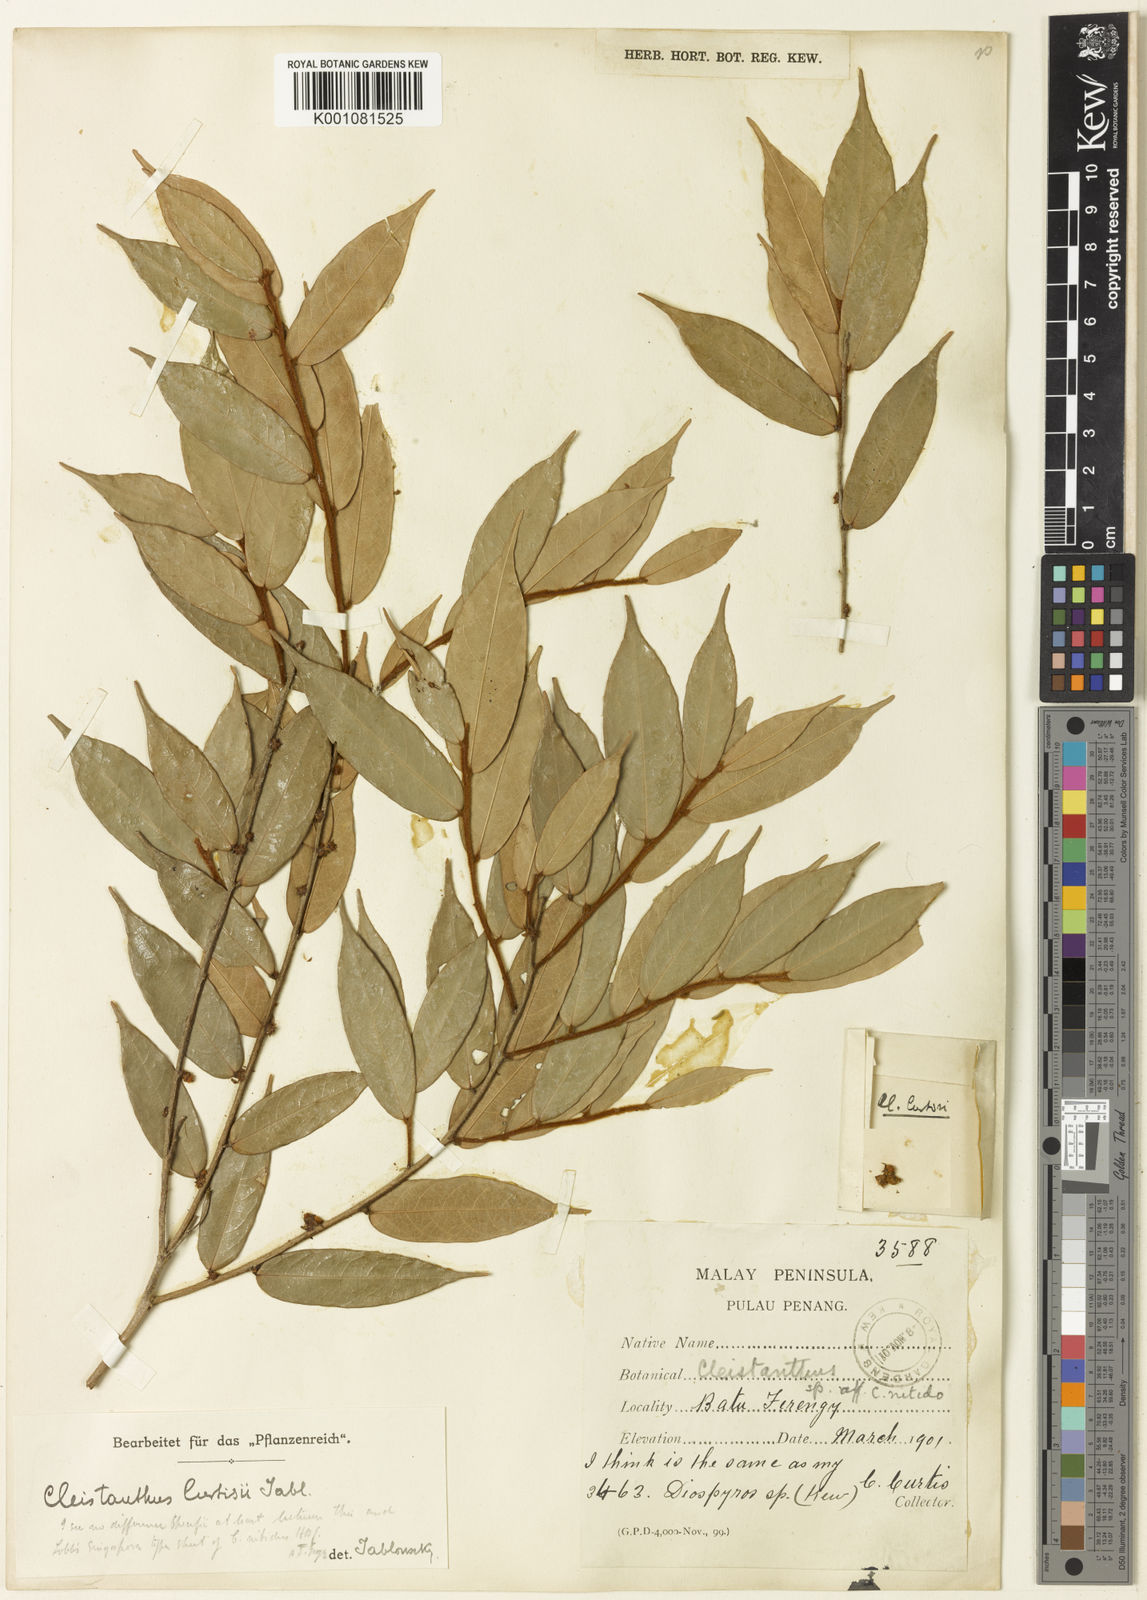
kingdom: Plantae
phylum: Tracheophyta
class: Magnoliopsida
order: Malpighiales
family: Phyllanthaceae
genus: Cleistanthus
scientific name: Cleistanthus nitidus
